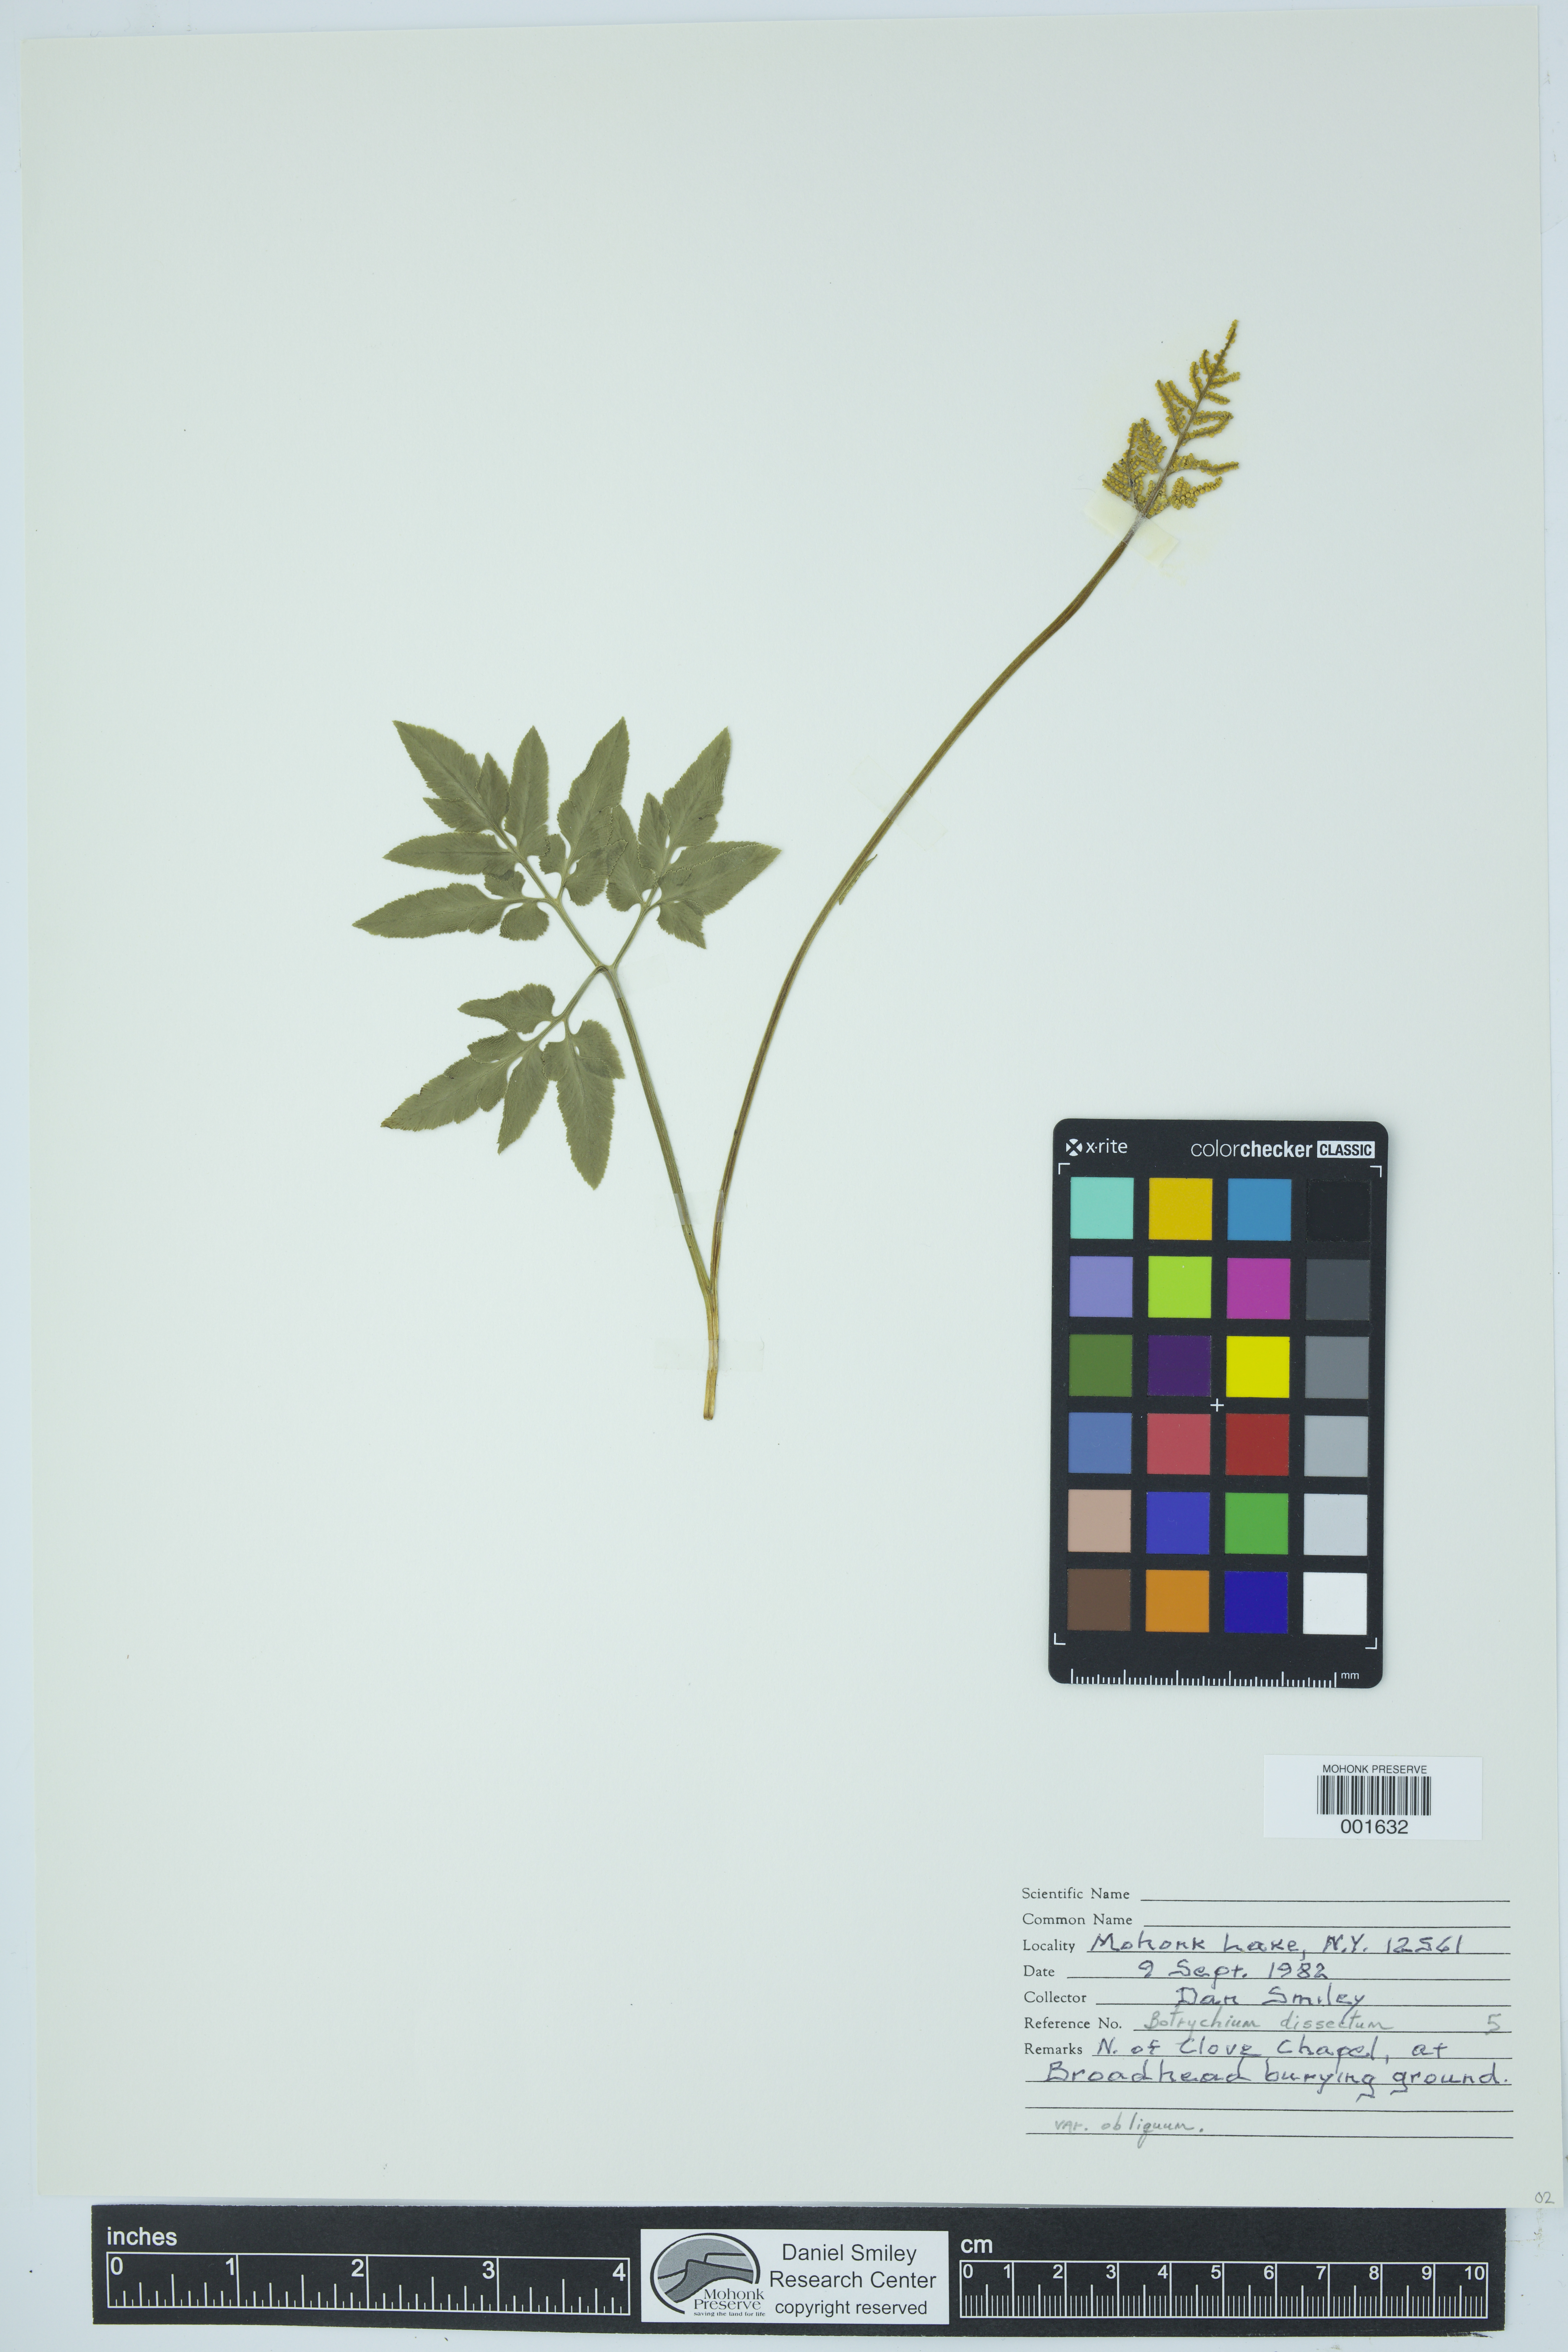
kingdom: Plantae
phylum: Tracheophyta
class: Polypodiopsida
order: Ophioglossales
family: Ophioglossaceae
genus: Sceptridium
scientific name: Sceptridium dissectum
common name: Cut-leaved grapefern
